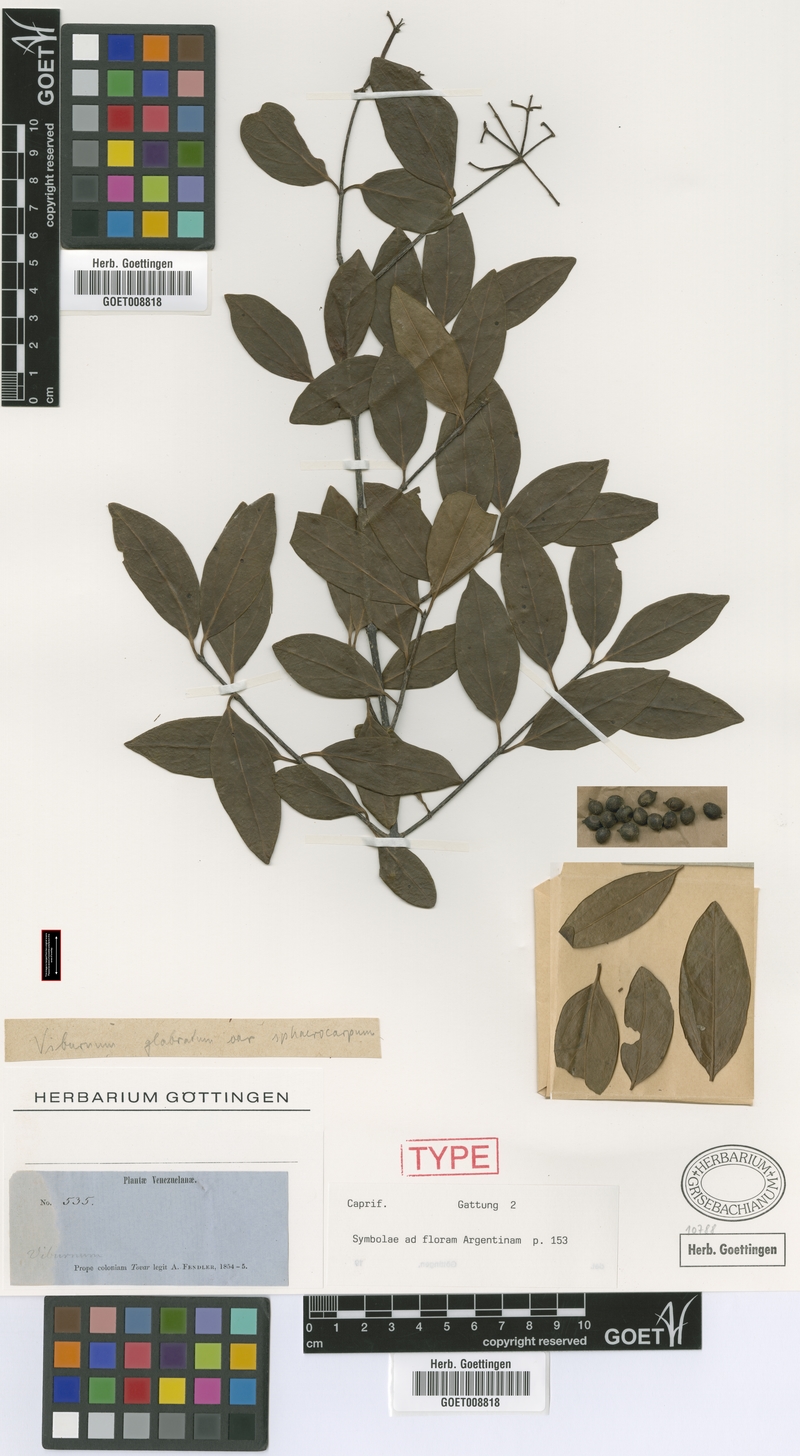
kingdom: Plantae
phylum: Tracheophyta
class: Magnoliopsida
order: Dipsacales
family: Viburnaceae
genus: Viburnum
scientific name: Viburnum seemenii
